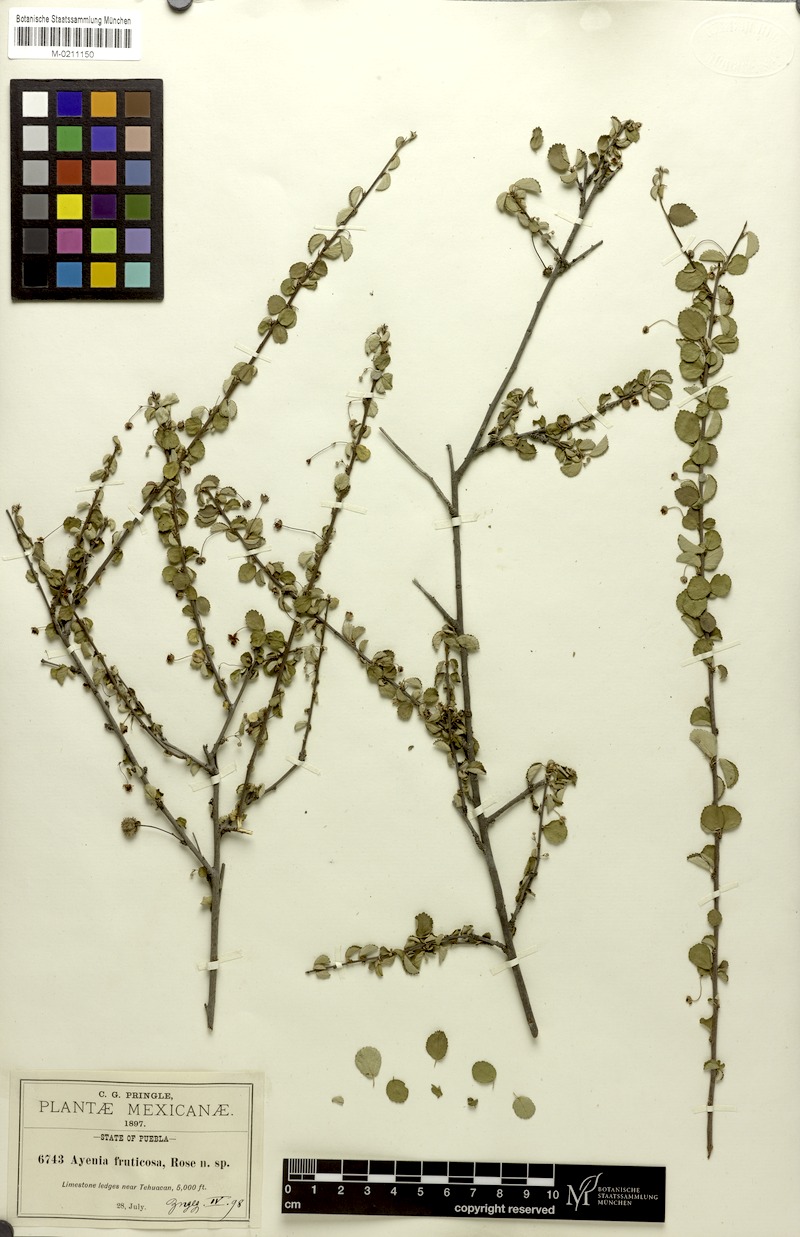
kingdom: Plantae
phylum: Tracheophyta
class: Magnoliopsida
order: Malvales
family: Malvaceae
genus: Ayenia
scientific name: Ayenia fruticosa
